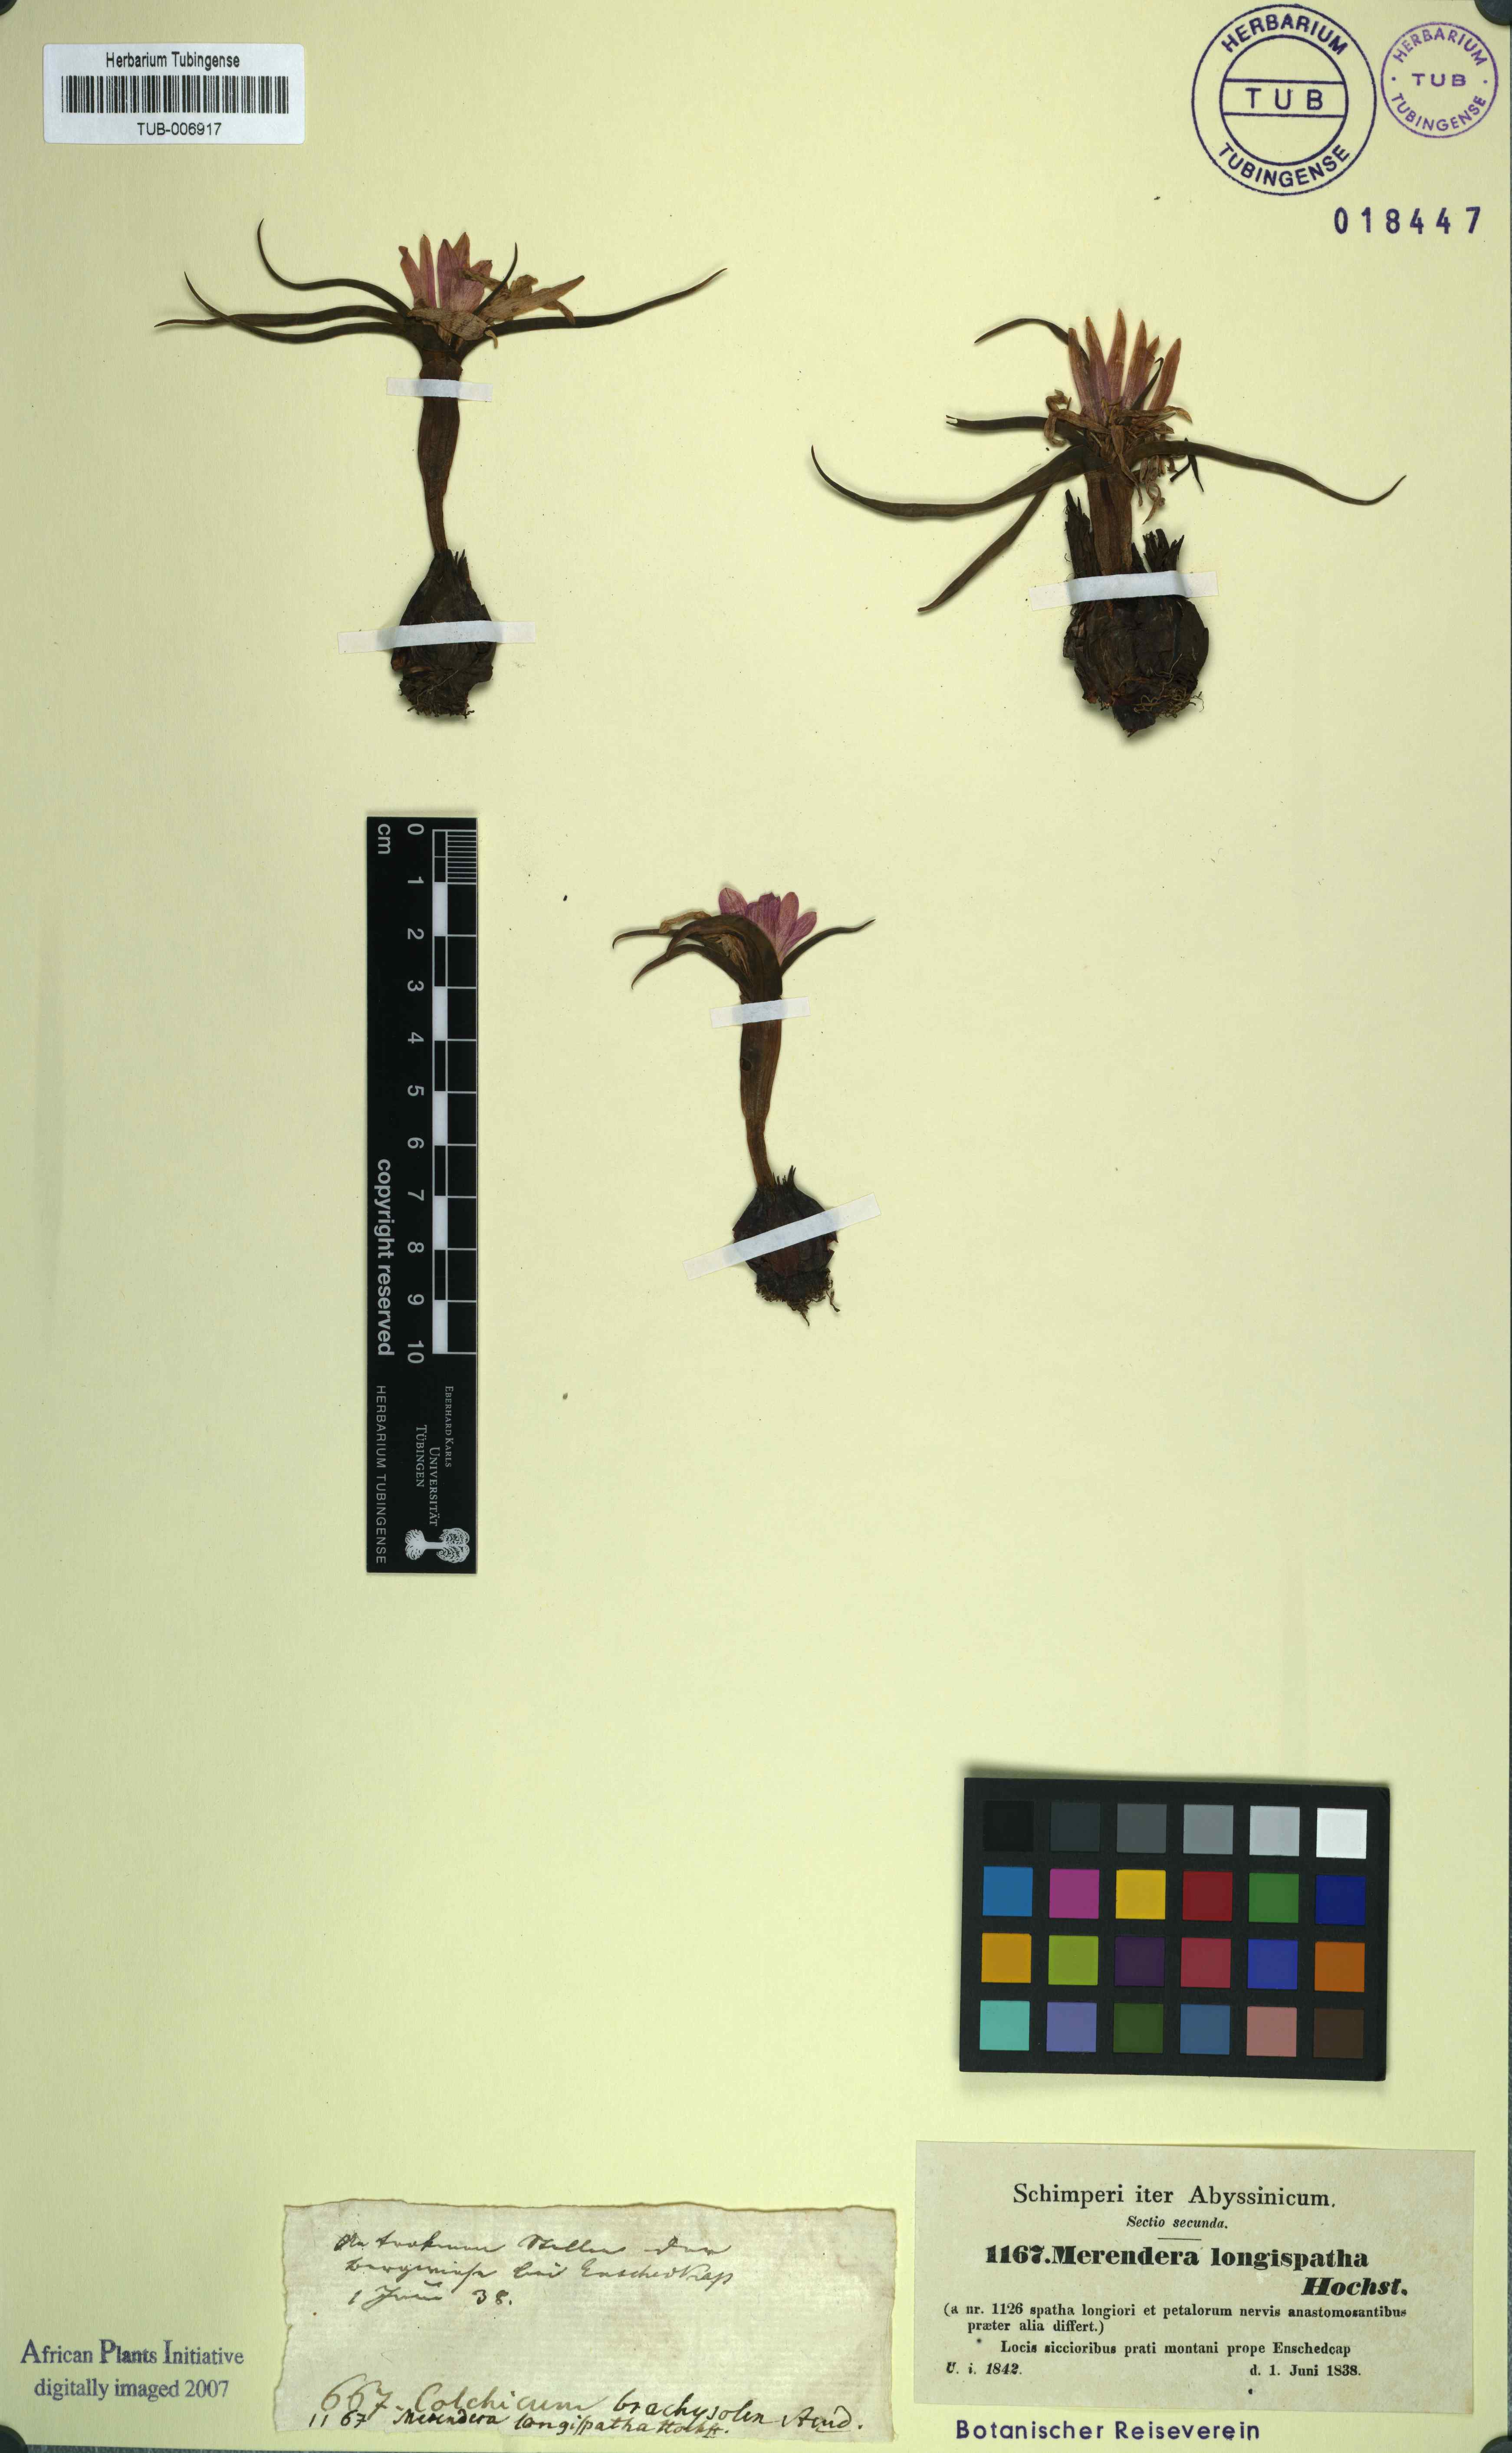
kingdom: Plantae
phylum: Tracheophyta
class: Liliopsida
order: Liliales
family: Colchicaceae
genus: Colchicum
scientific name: Colchicum schimperianum
